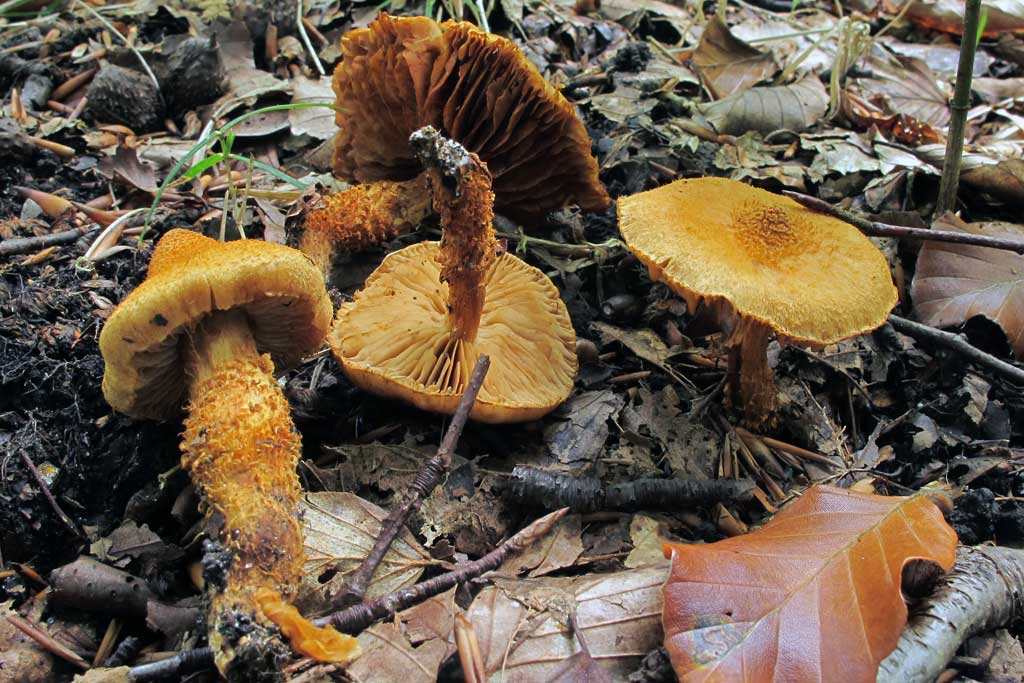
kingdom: Fungi
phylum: Basidiomycota
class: Agaricomycetes
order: Agaricales
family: Cortinariaceae
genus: Cortinarius
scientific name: Cortinarius humicola
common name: krumskællet slørhat
